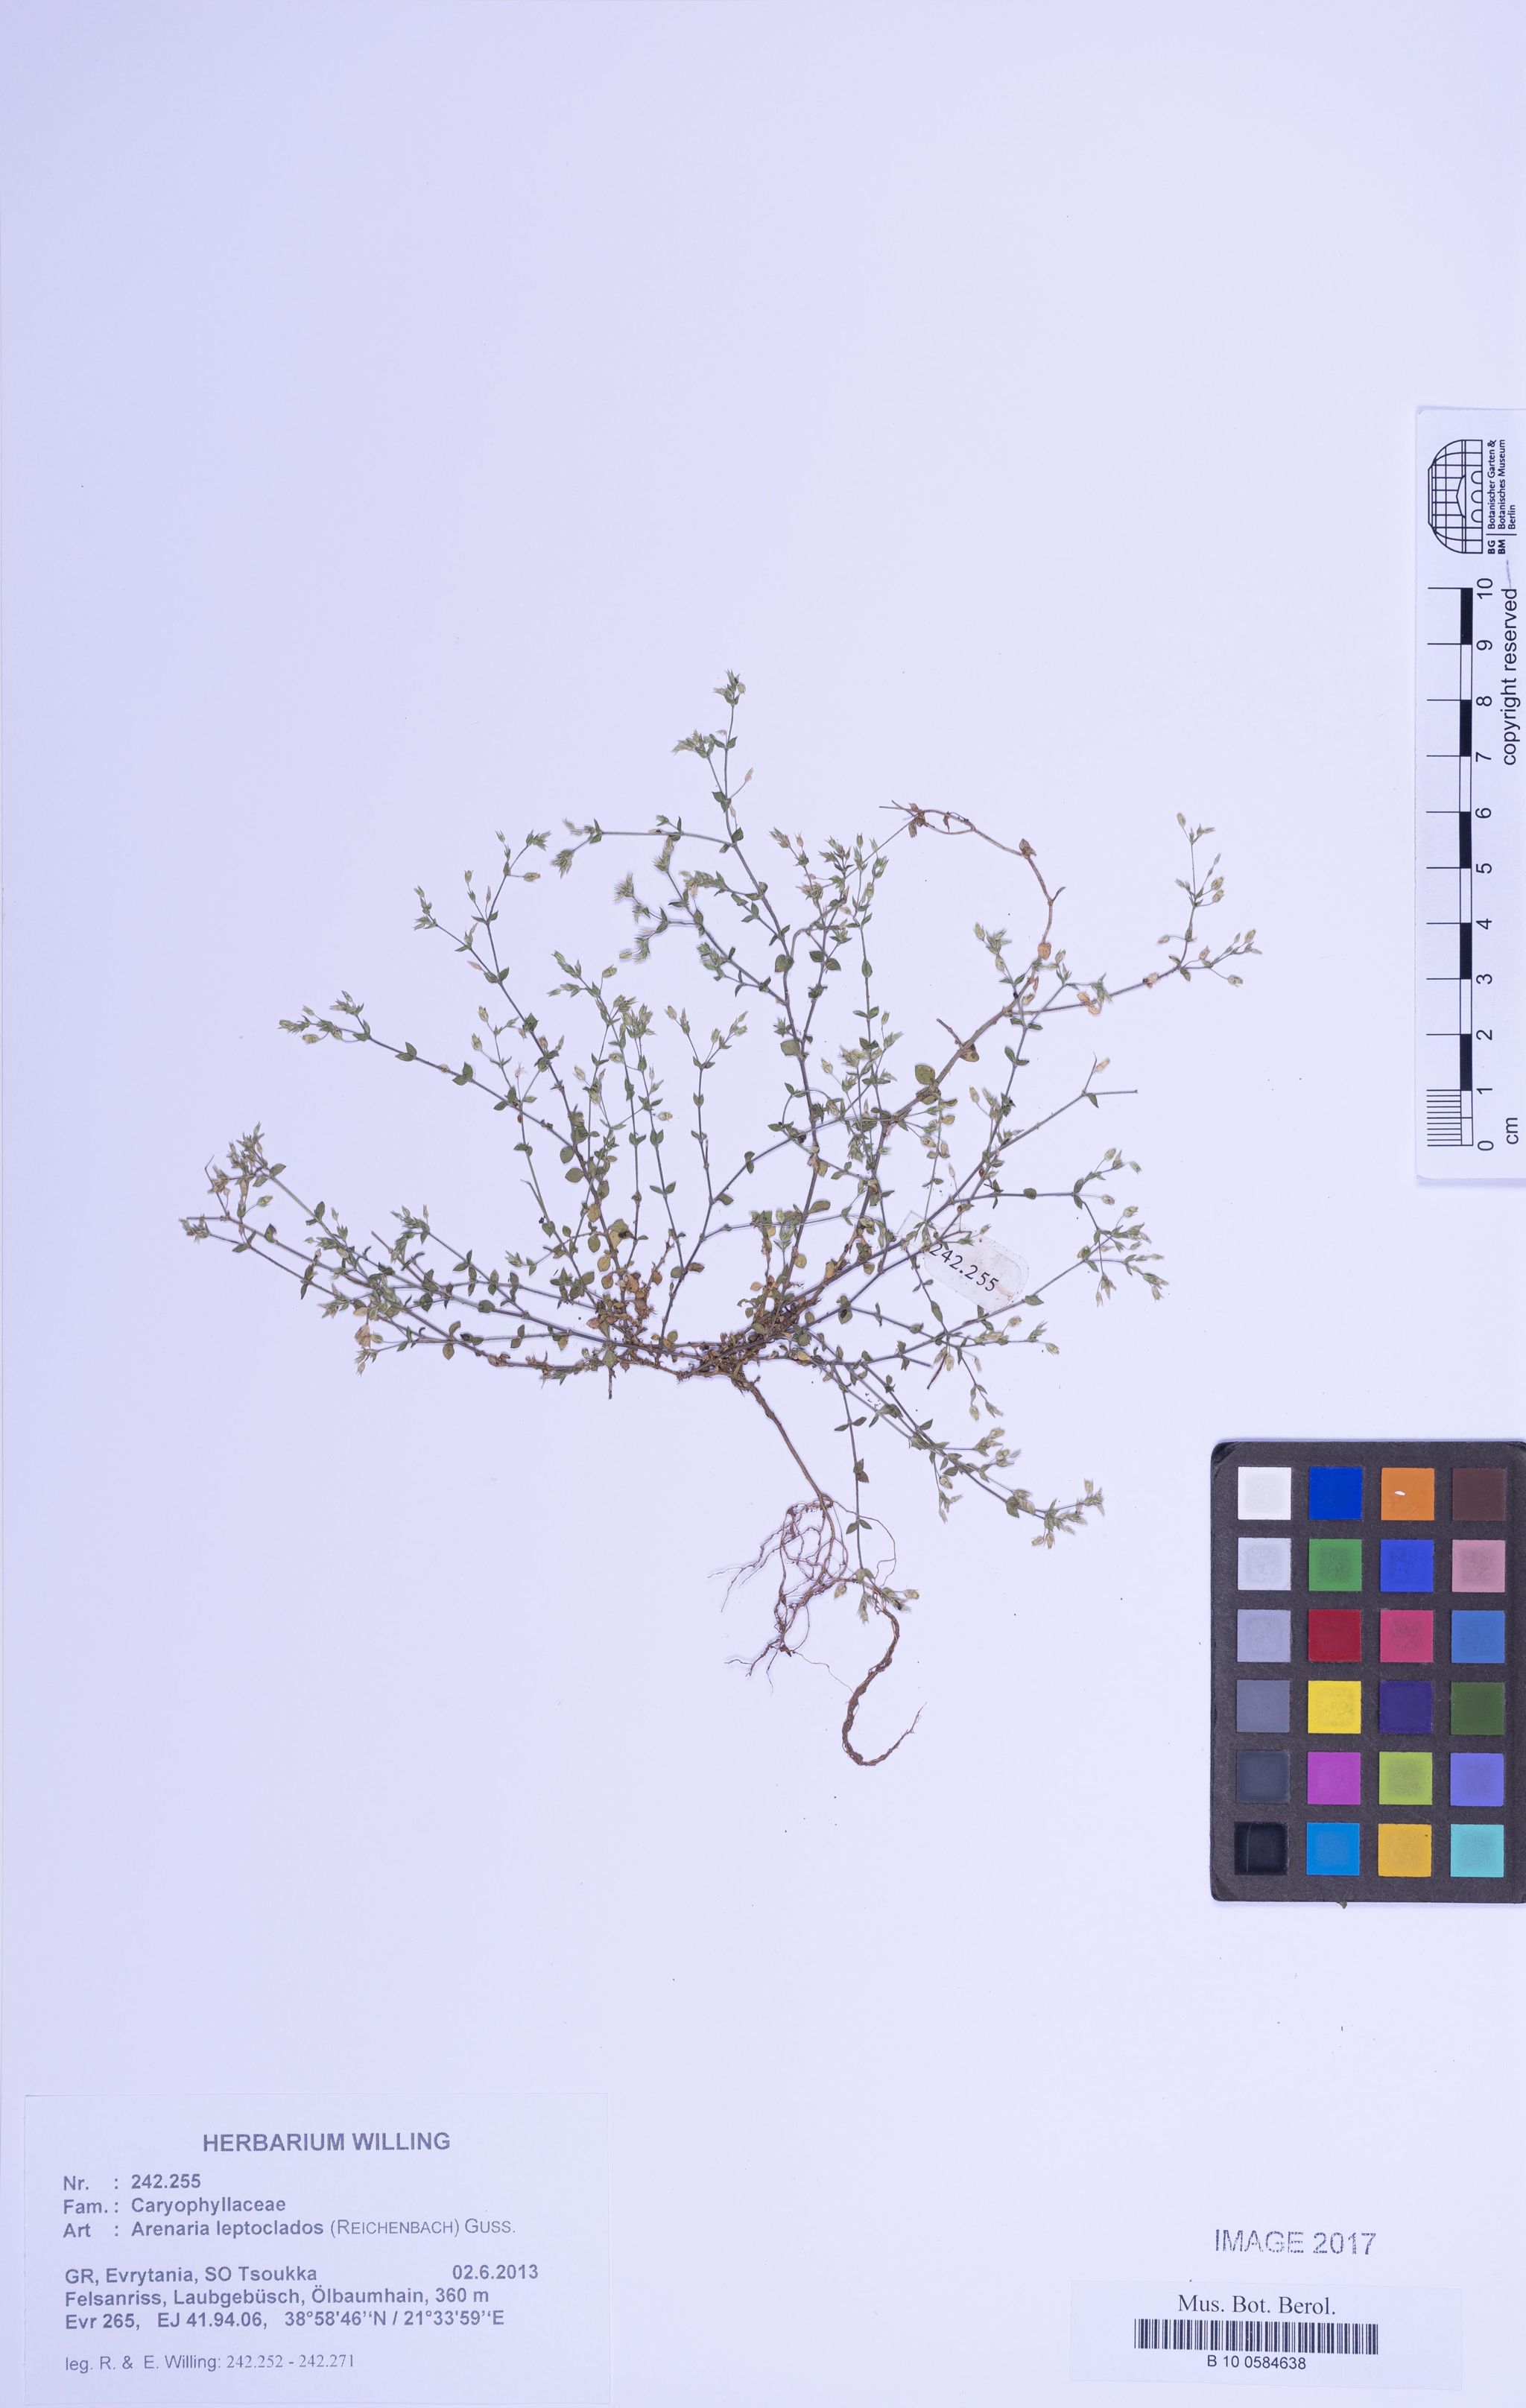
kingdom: Plantae
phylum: Tracheophyta
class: Magnoliopsida
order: Caryophyllales
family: Caryophyllaceae
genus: Arenaria
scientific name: Arenaria leptoclados
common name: Thyme-leaved sandwort
